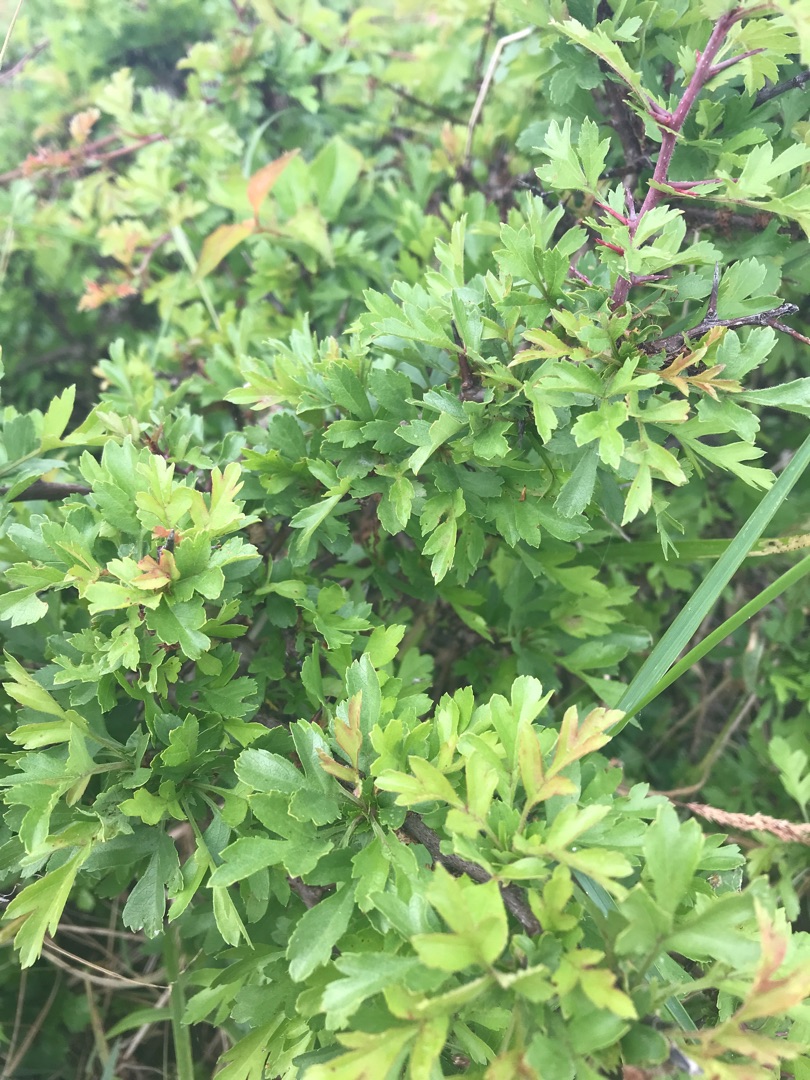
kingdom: Plantae
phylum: Tracheophyta
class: Magnoliopsida
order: Rosales
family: Rosaceae
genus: Crataegus
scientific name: Crataegus monogyna
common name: Engriflet hvidtjørn
